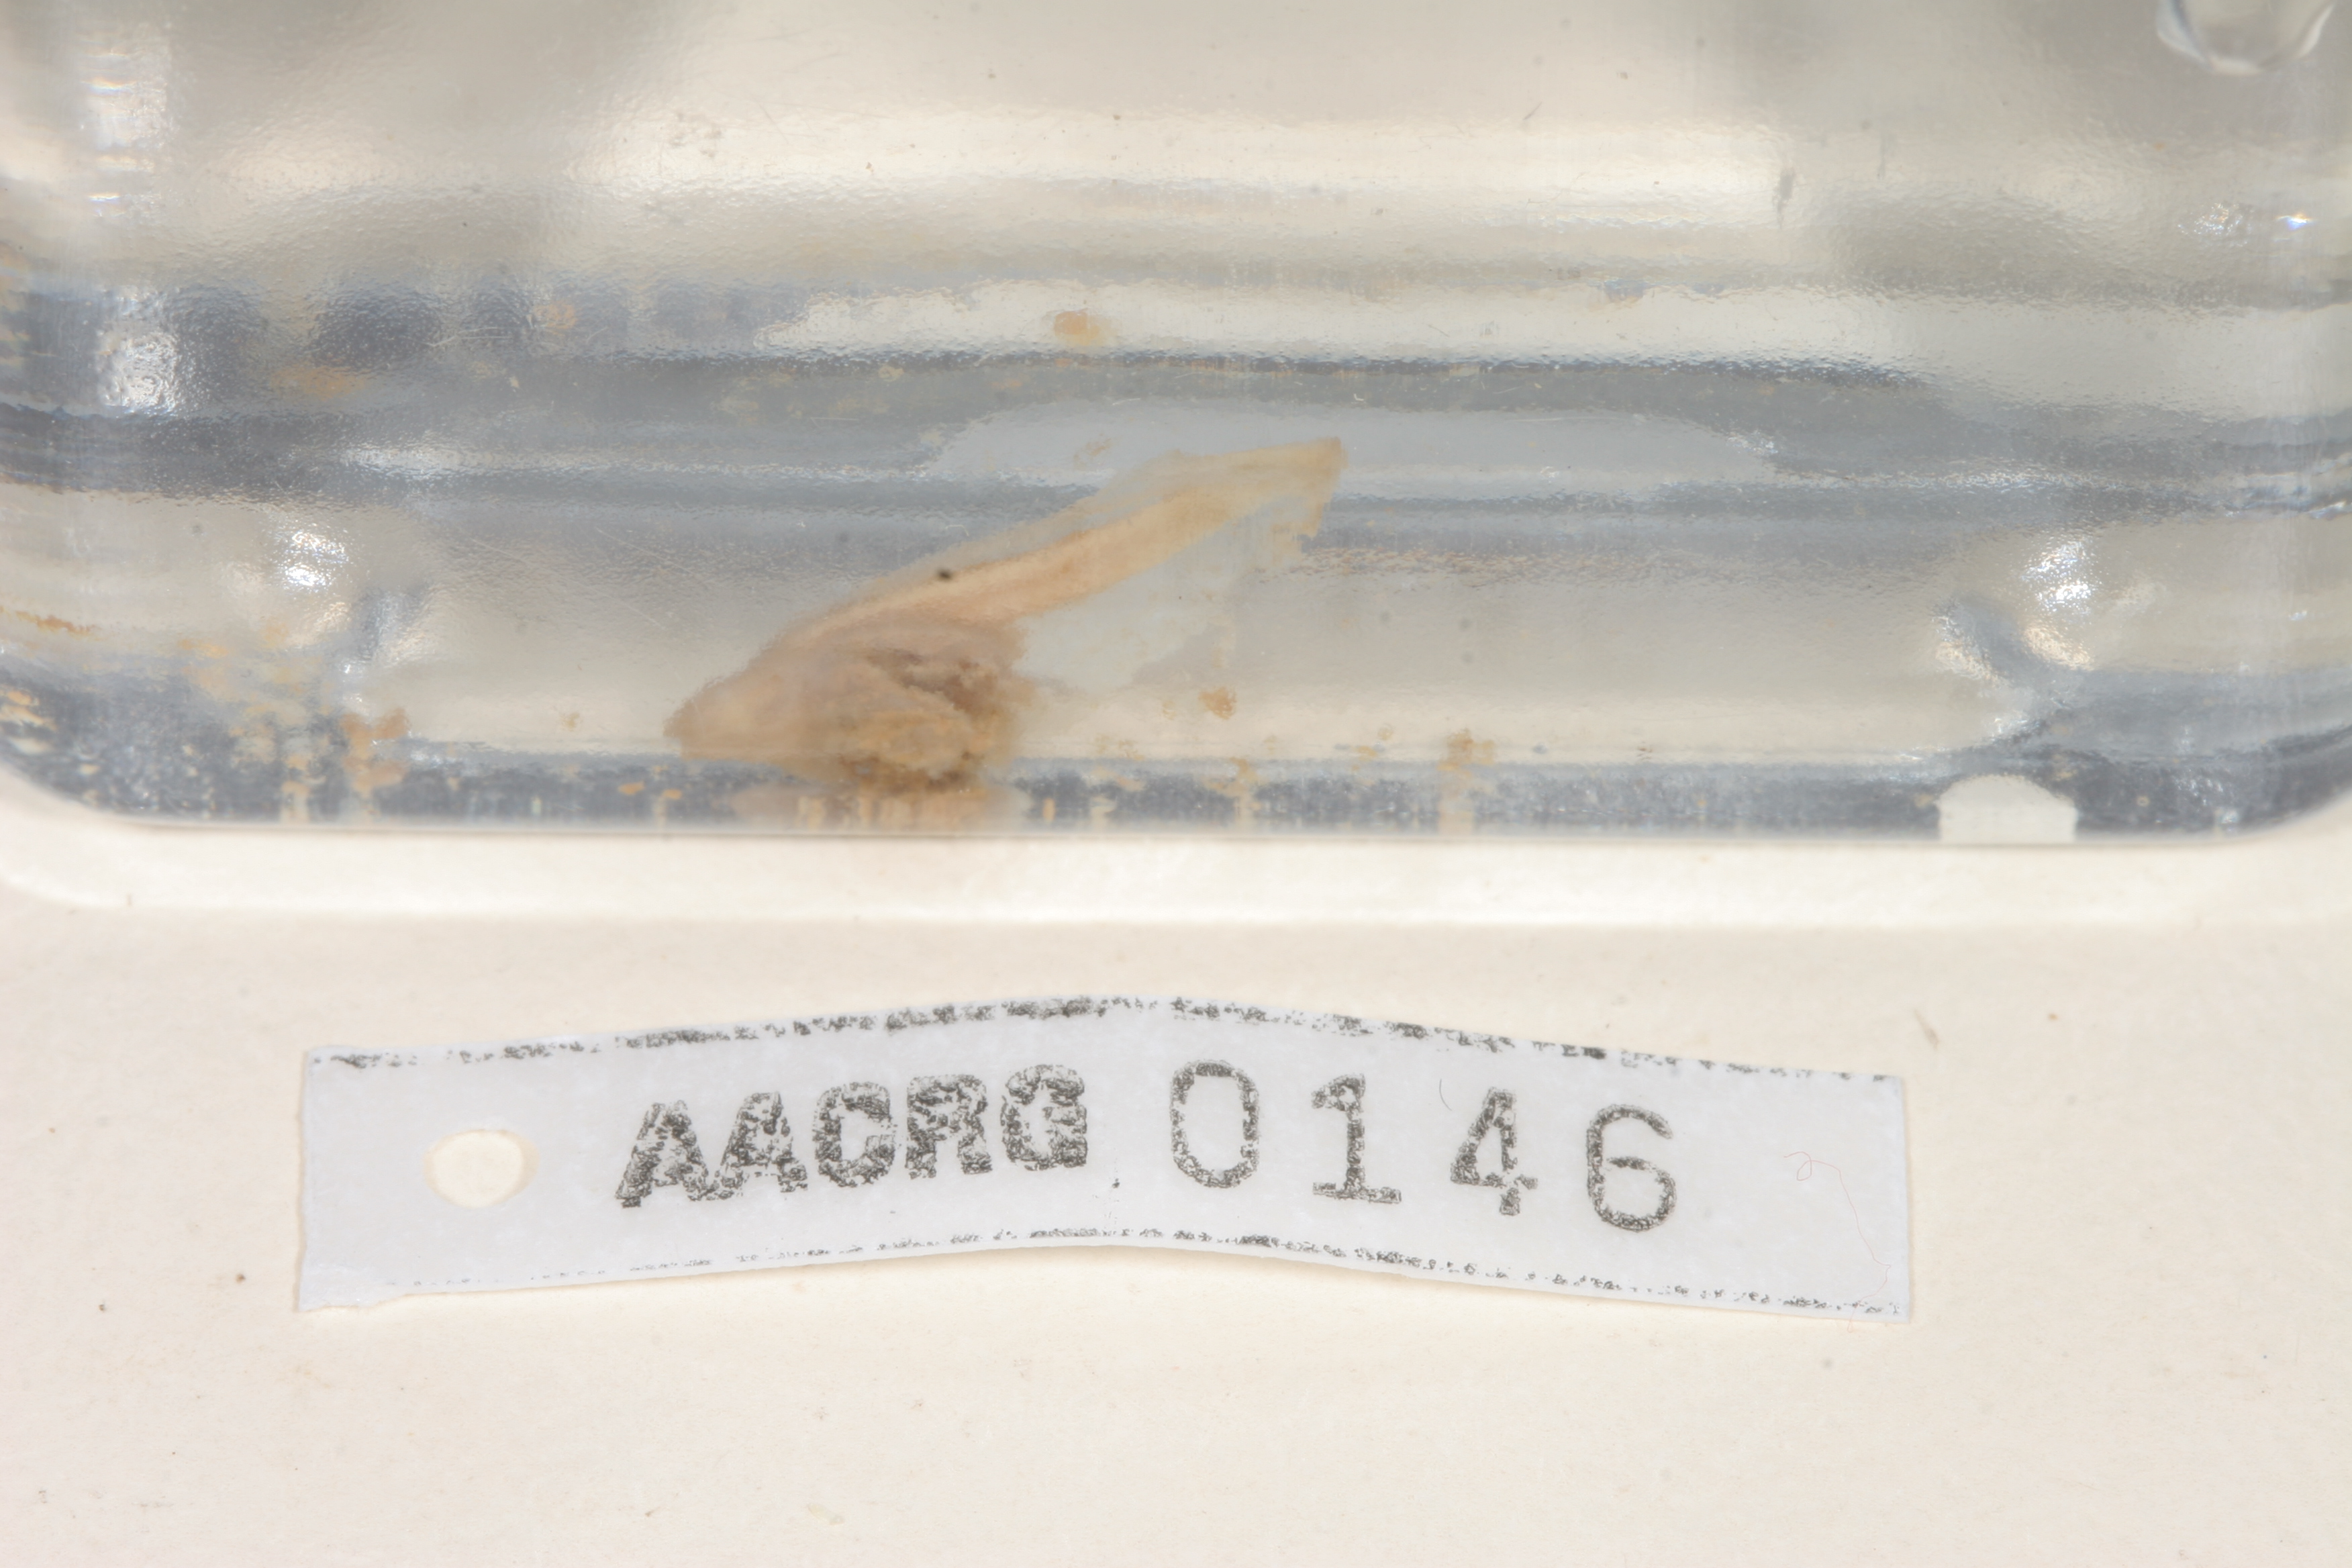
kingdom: Animalia
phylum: Chordata
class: Amphibia
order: Anura
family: Hyperoliidae
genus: Kassina
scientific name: Kassina senegalensis
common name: Senegal land frog
